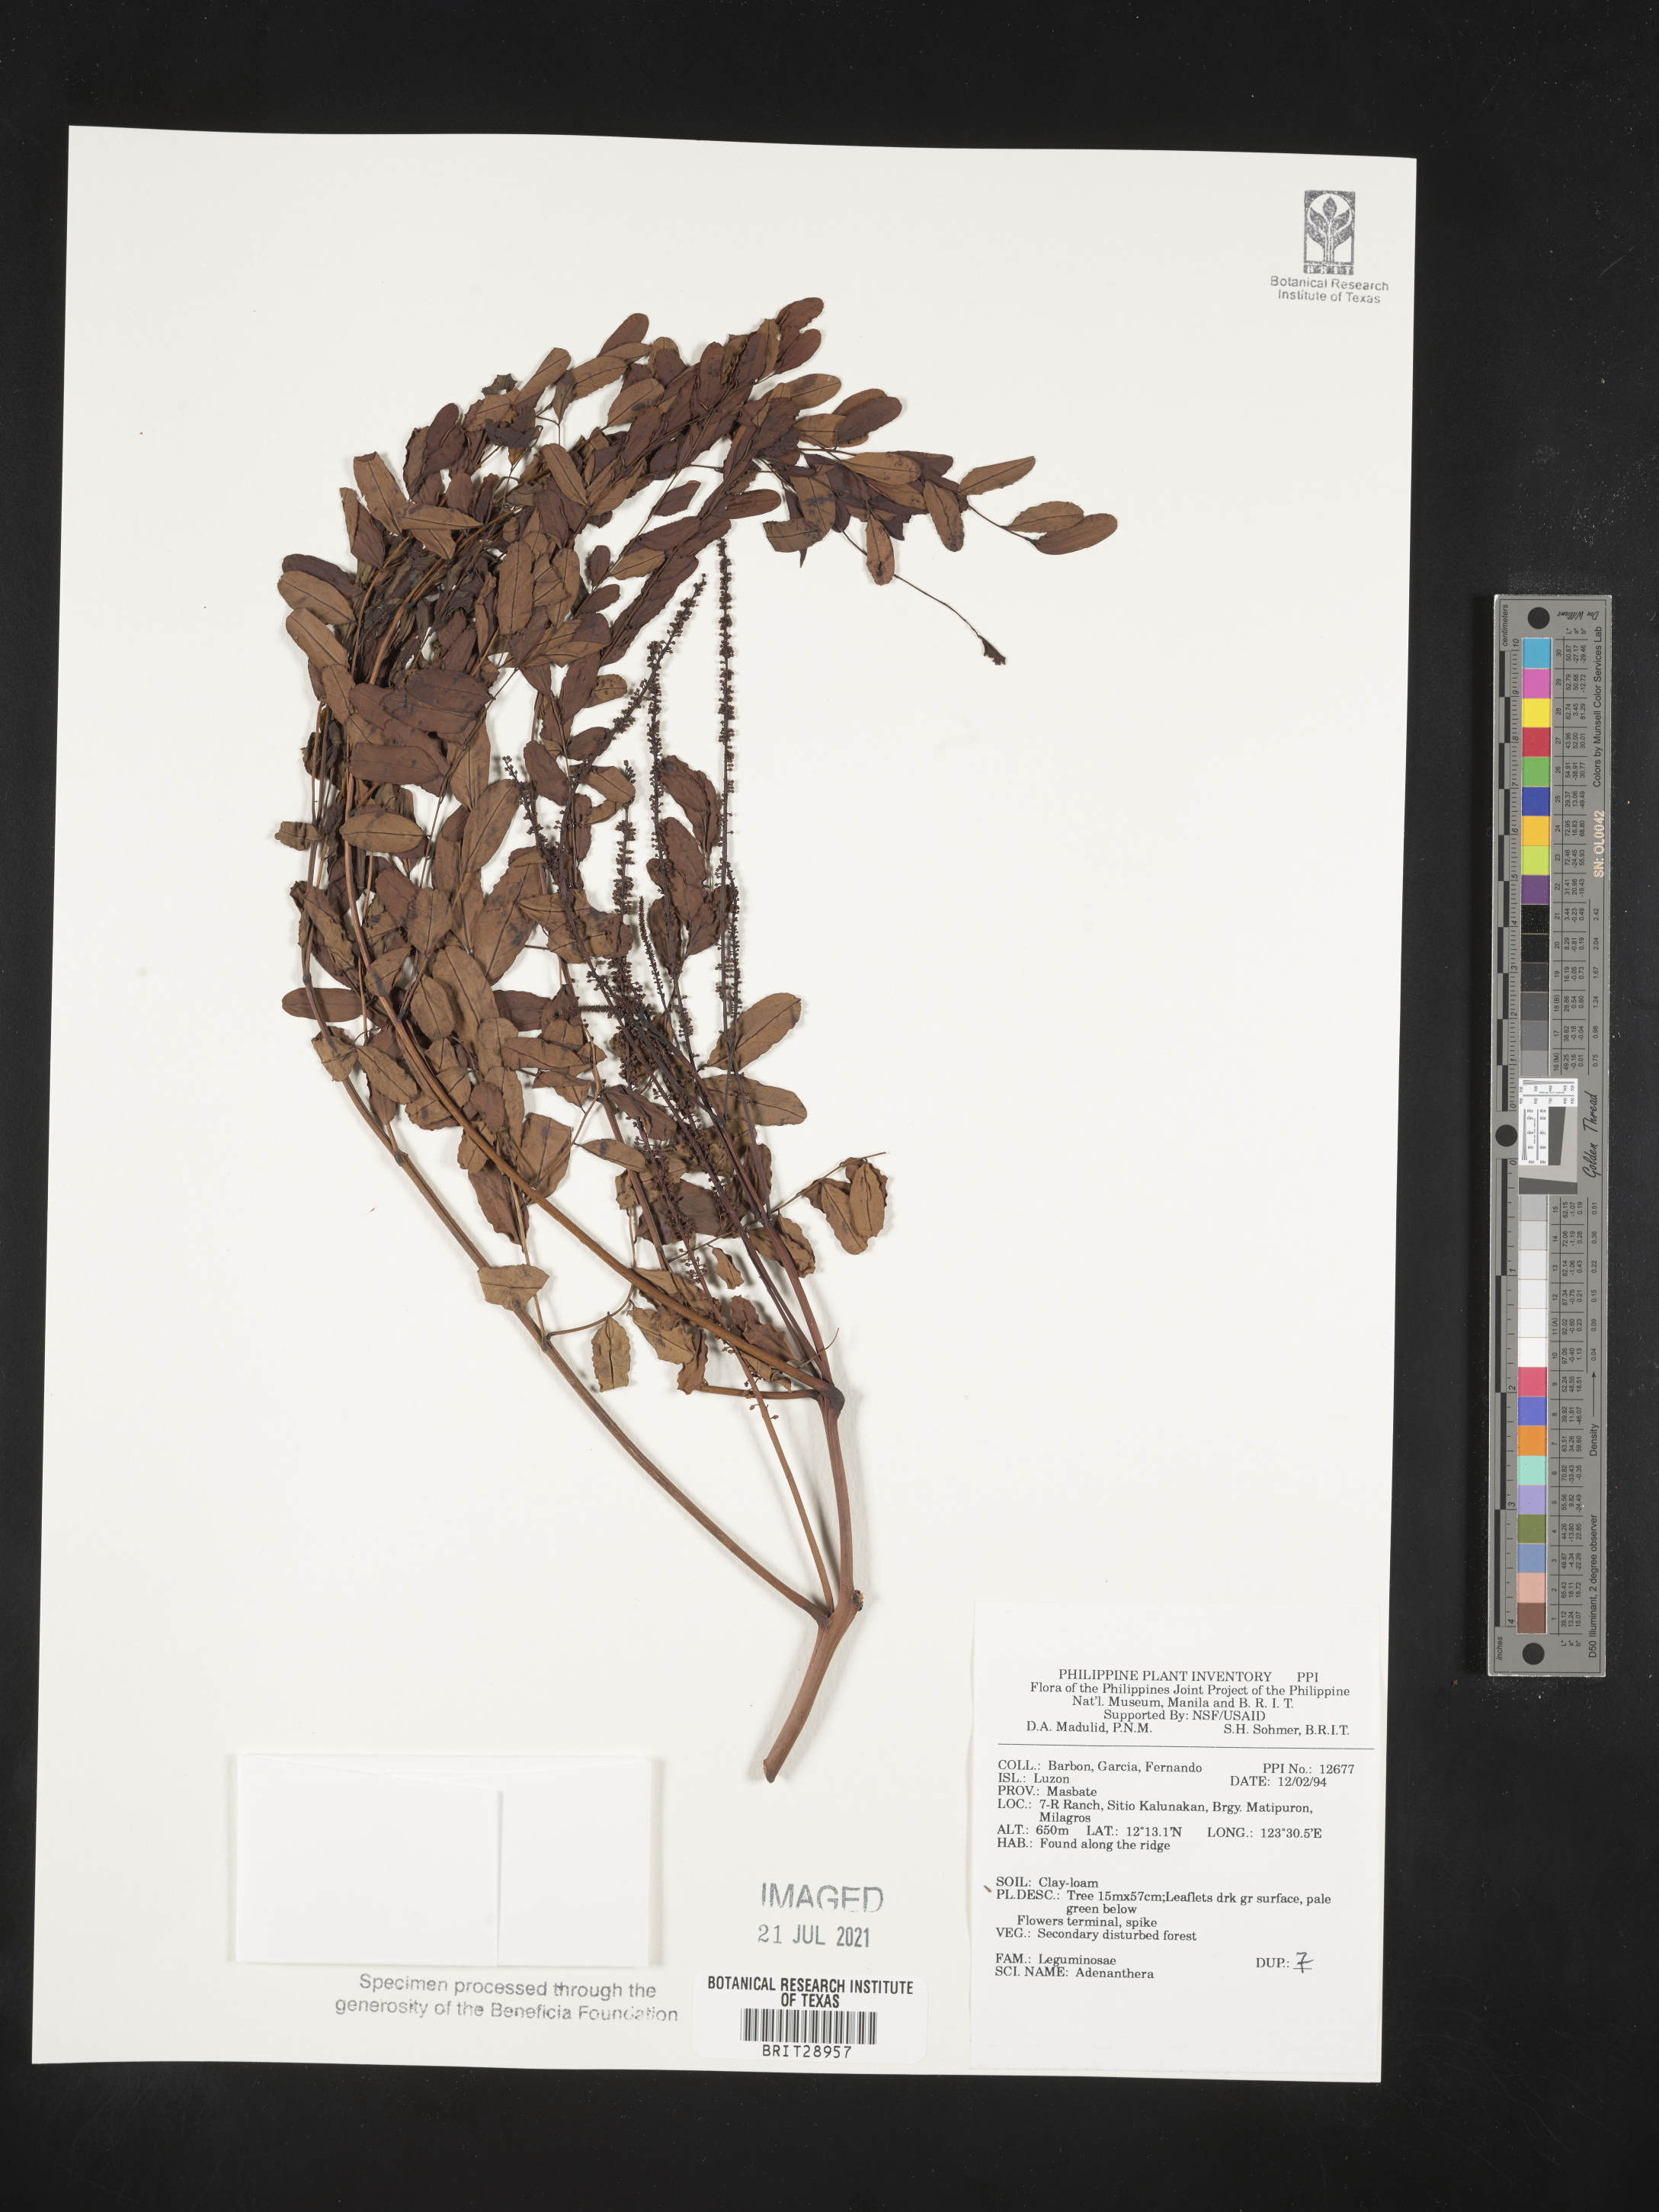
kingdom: Plantae
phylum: Tracheophyta
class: Magnoliopsida
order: Fabales
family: Fabaceae
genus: Adenanthera
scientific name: Adenanthera
